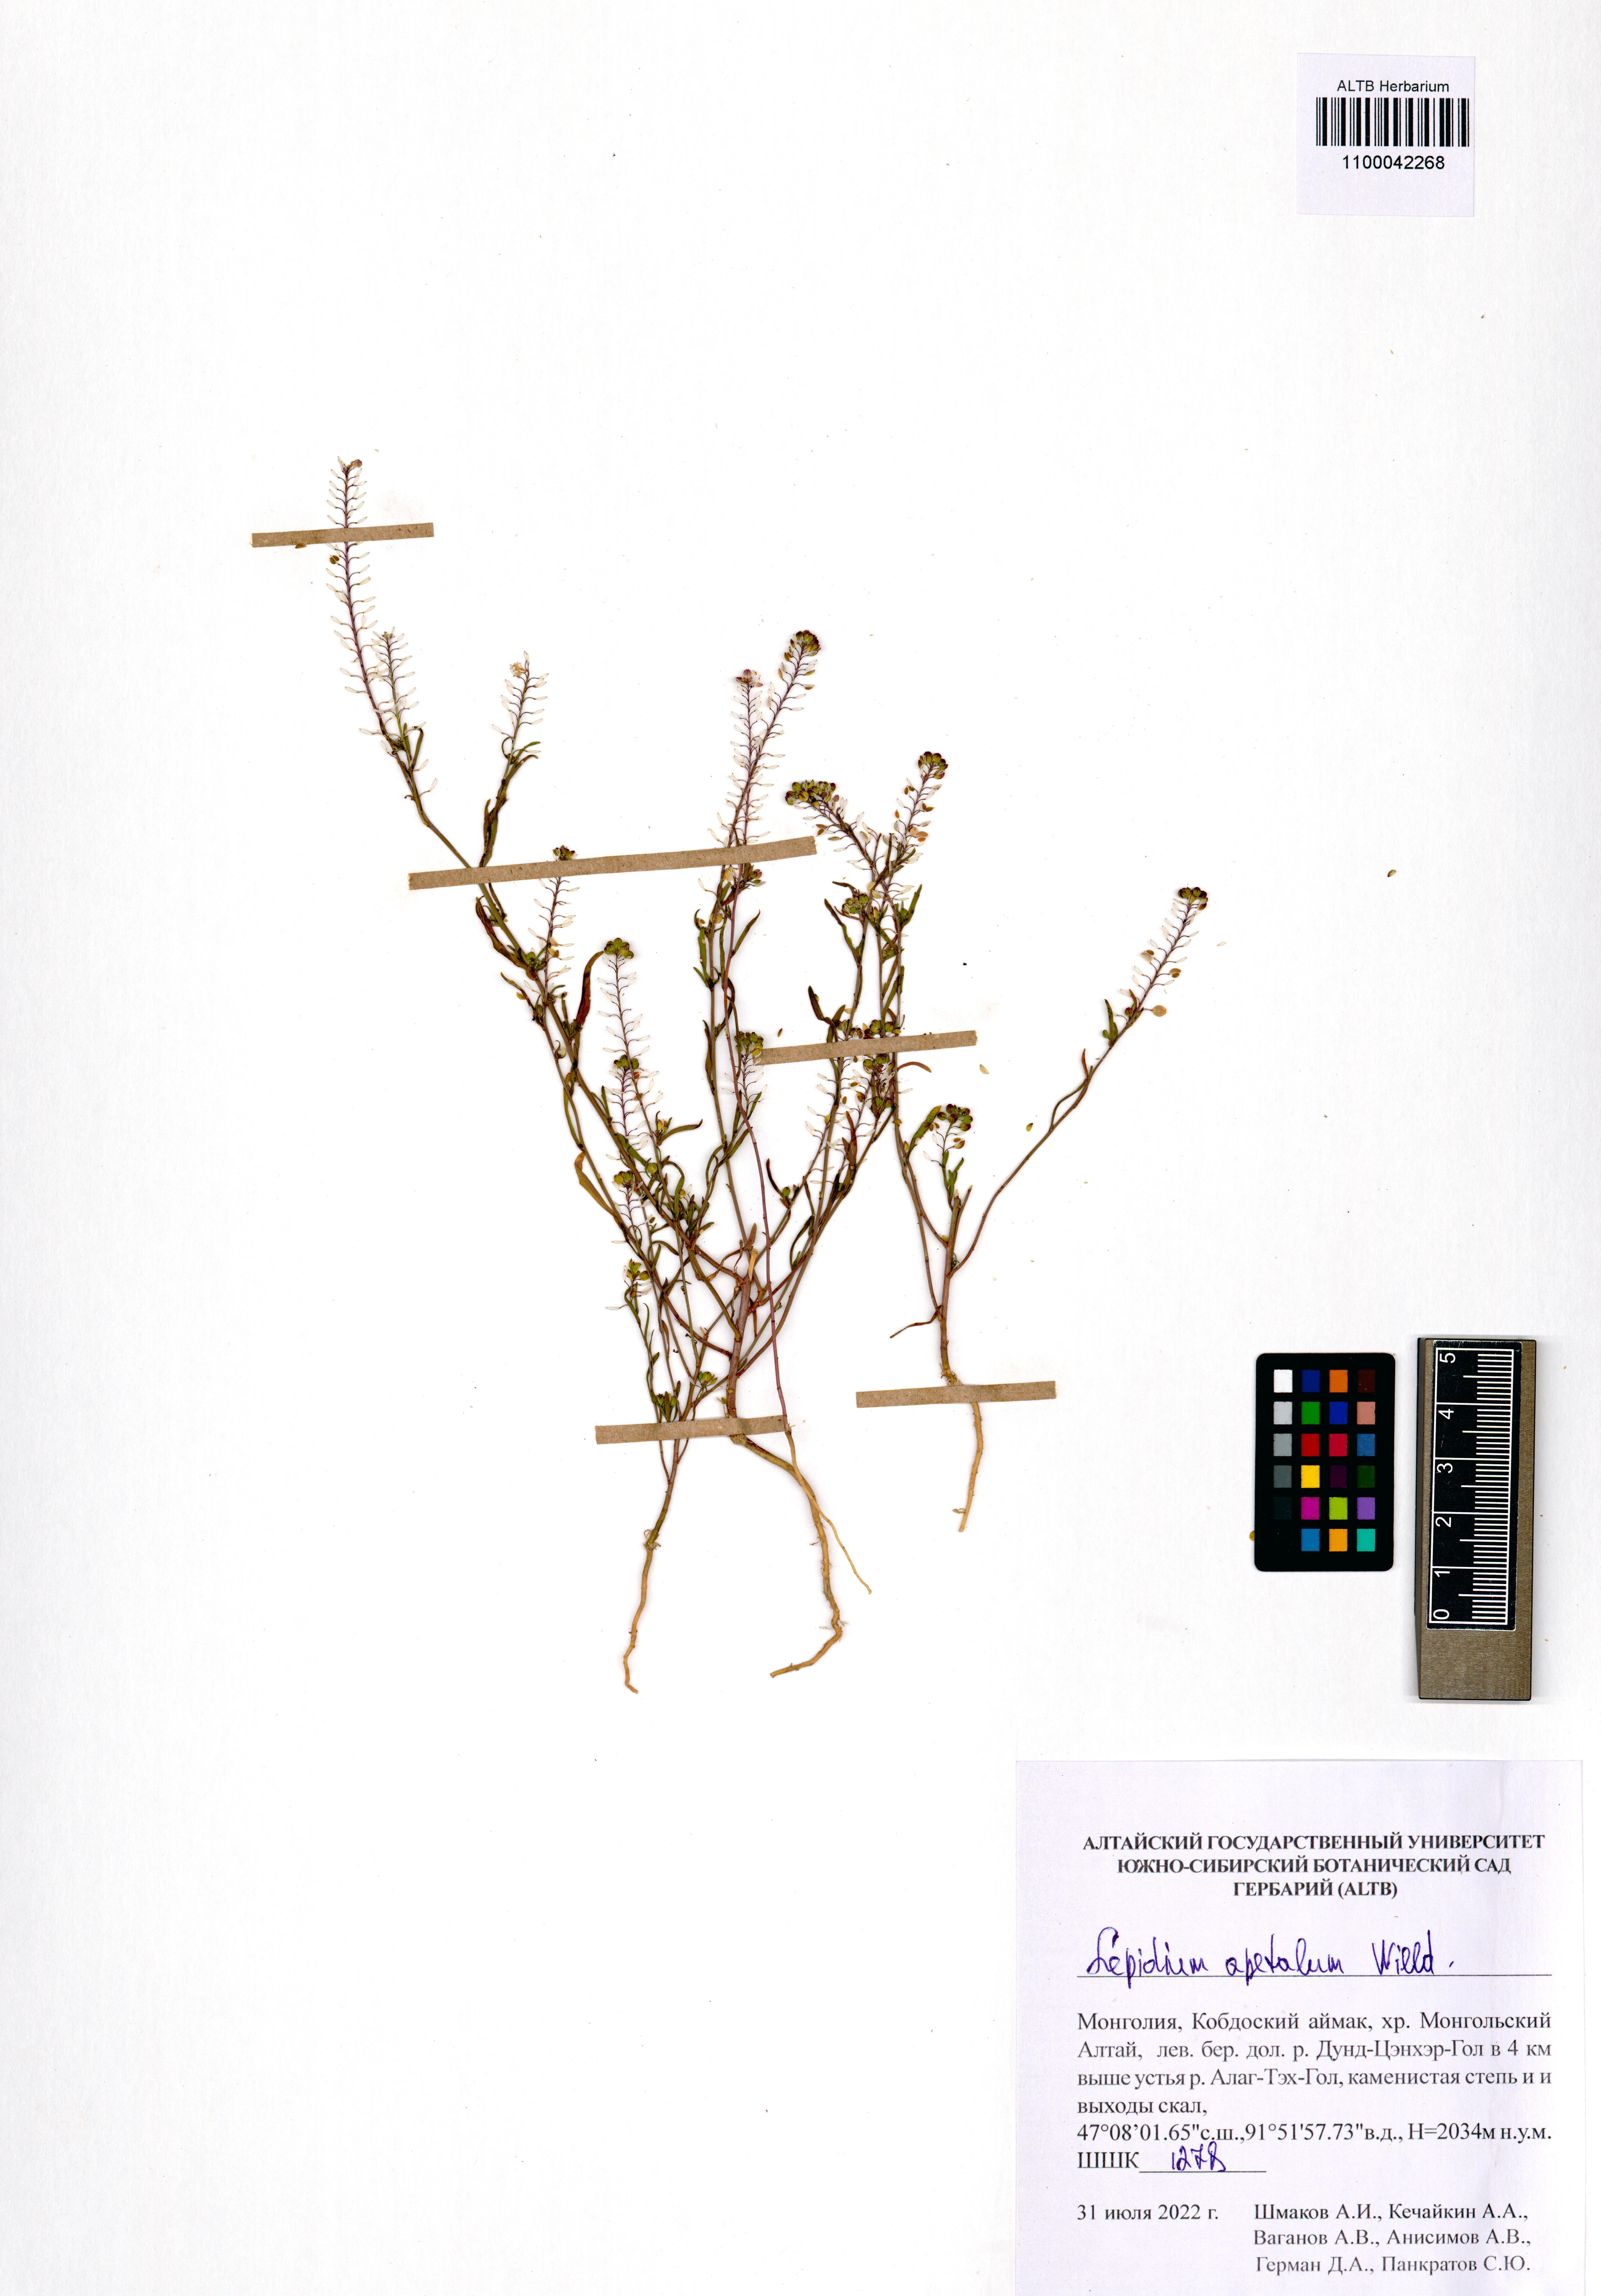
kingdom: Plantae
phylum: Tracheophyta
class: Magnoliopsida
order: Brassicales
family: Brassicaceae
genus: Lepidium
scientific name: Lepidium apetalum
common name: Pepperweed
